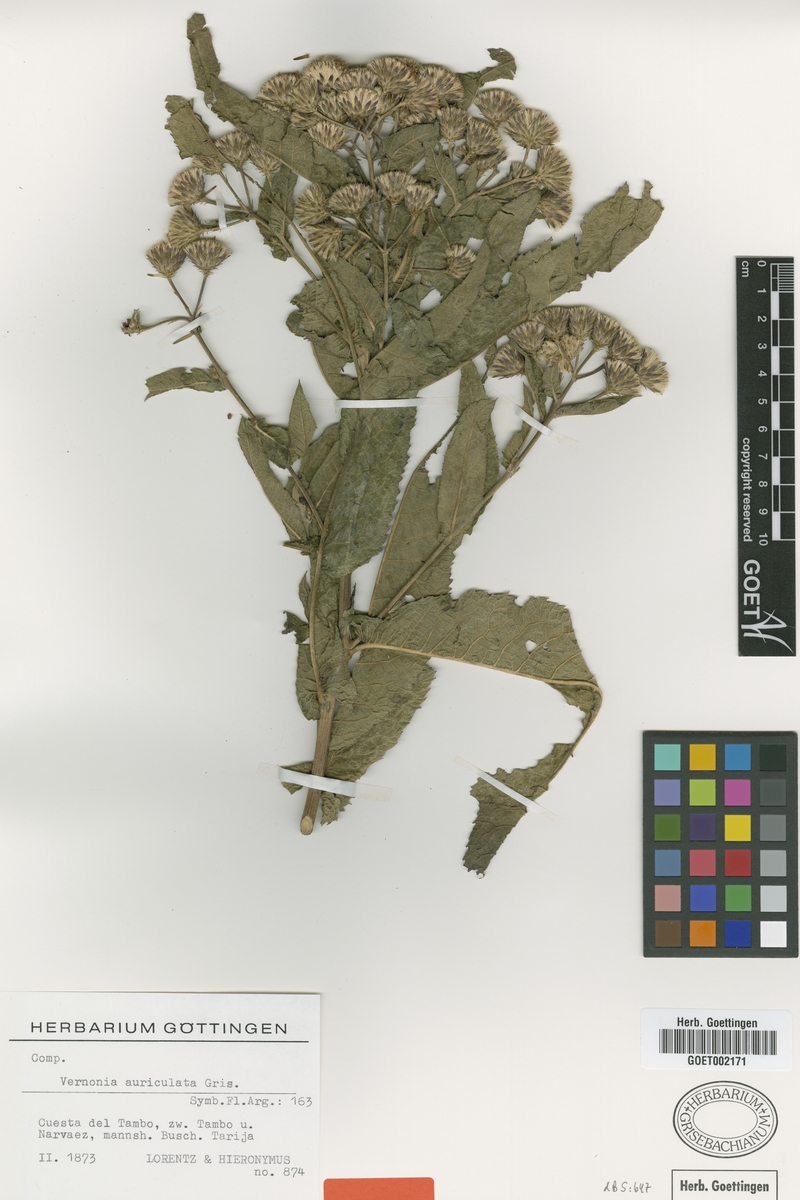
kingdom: Plantae
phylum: Tracheophyta
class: Magnoliopsida
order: Asterales
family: Asteraceae
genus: Vernonanthura
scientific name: Vernonanthura auriculata
